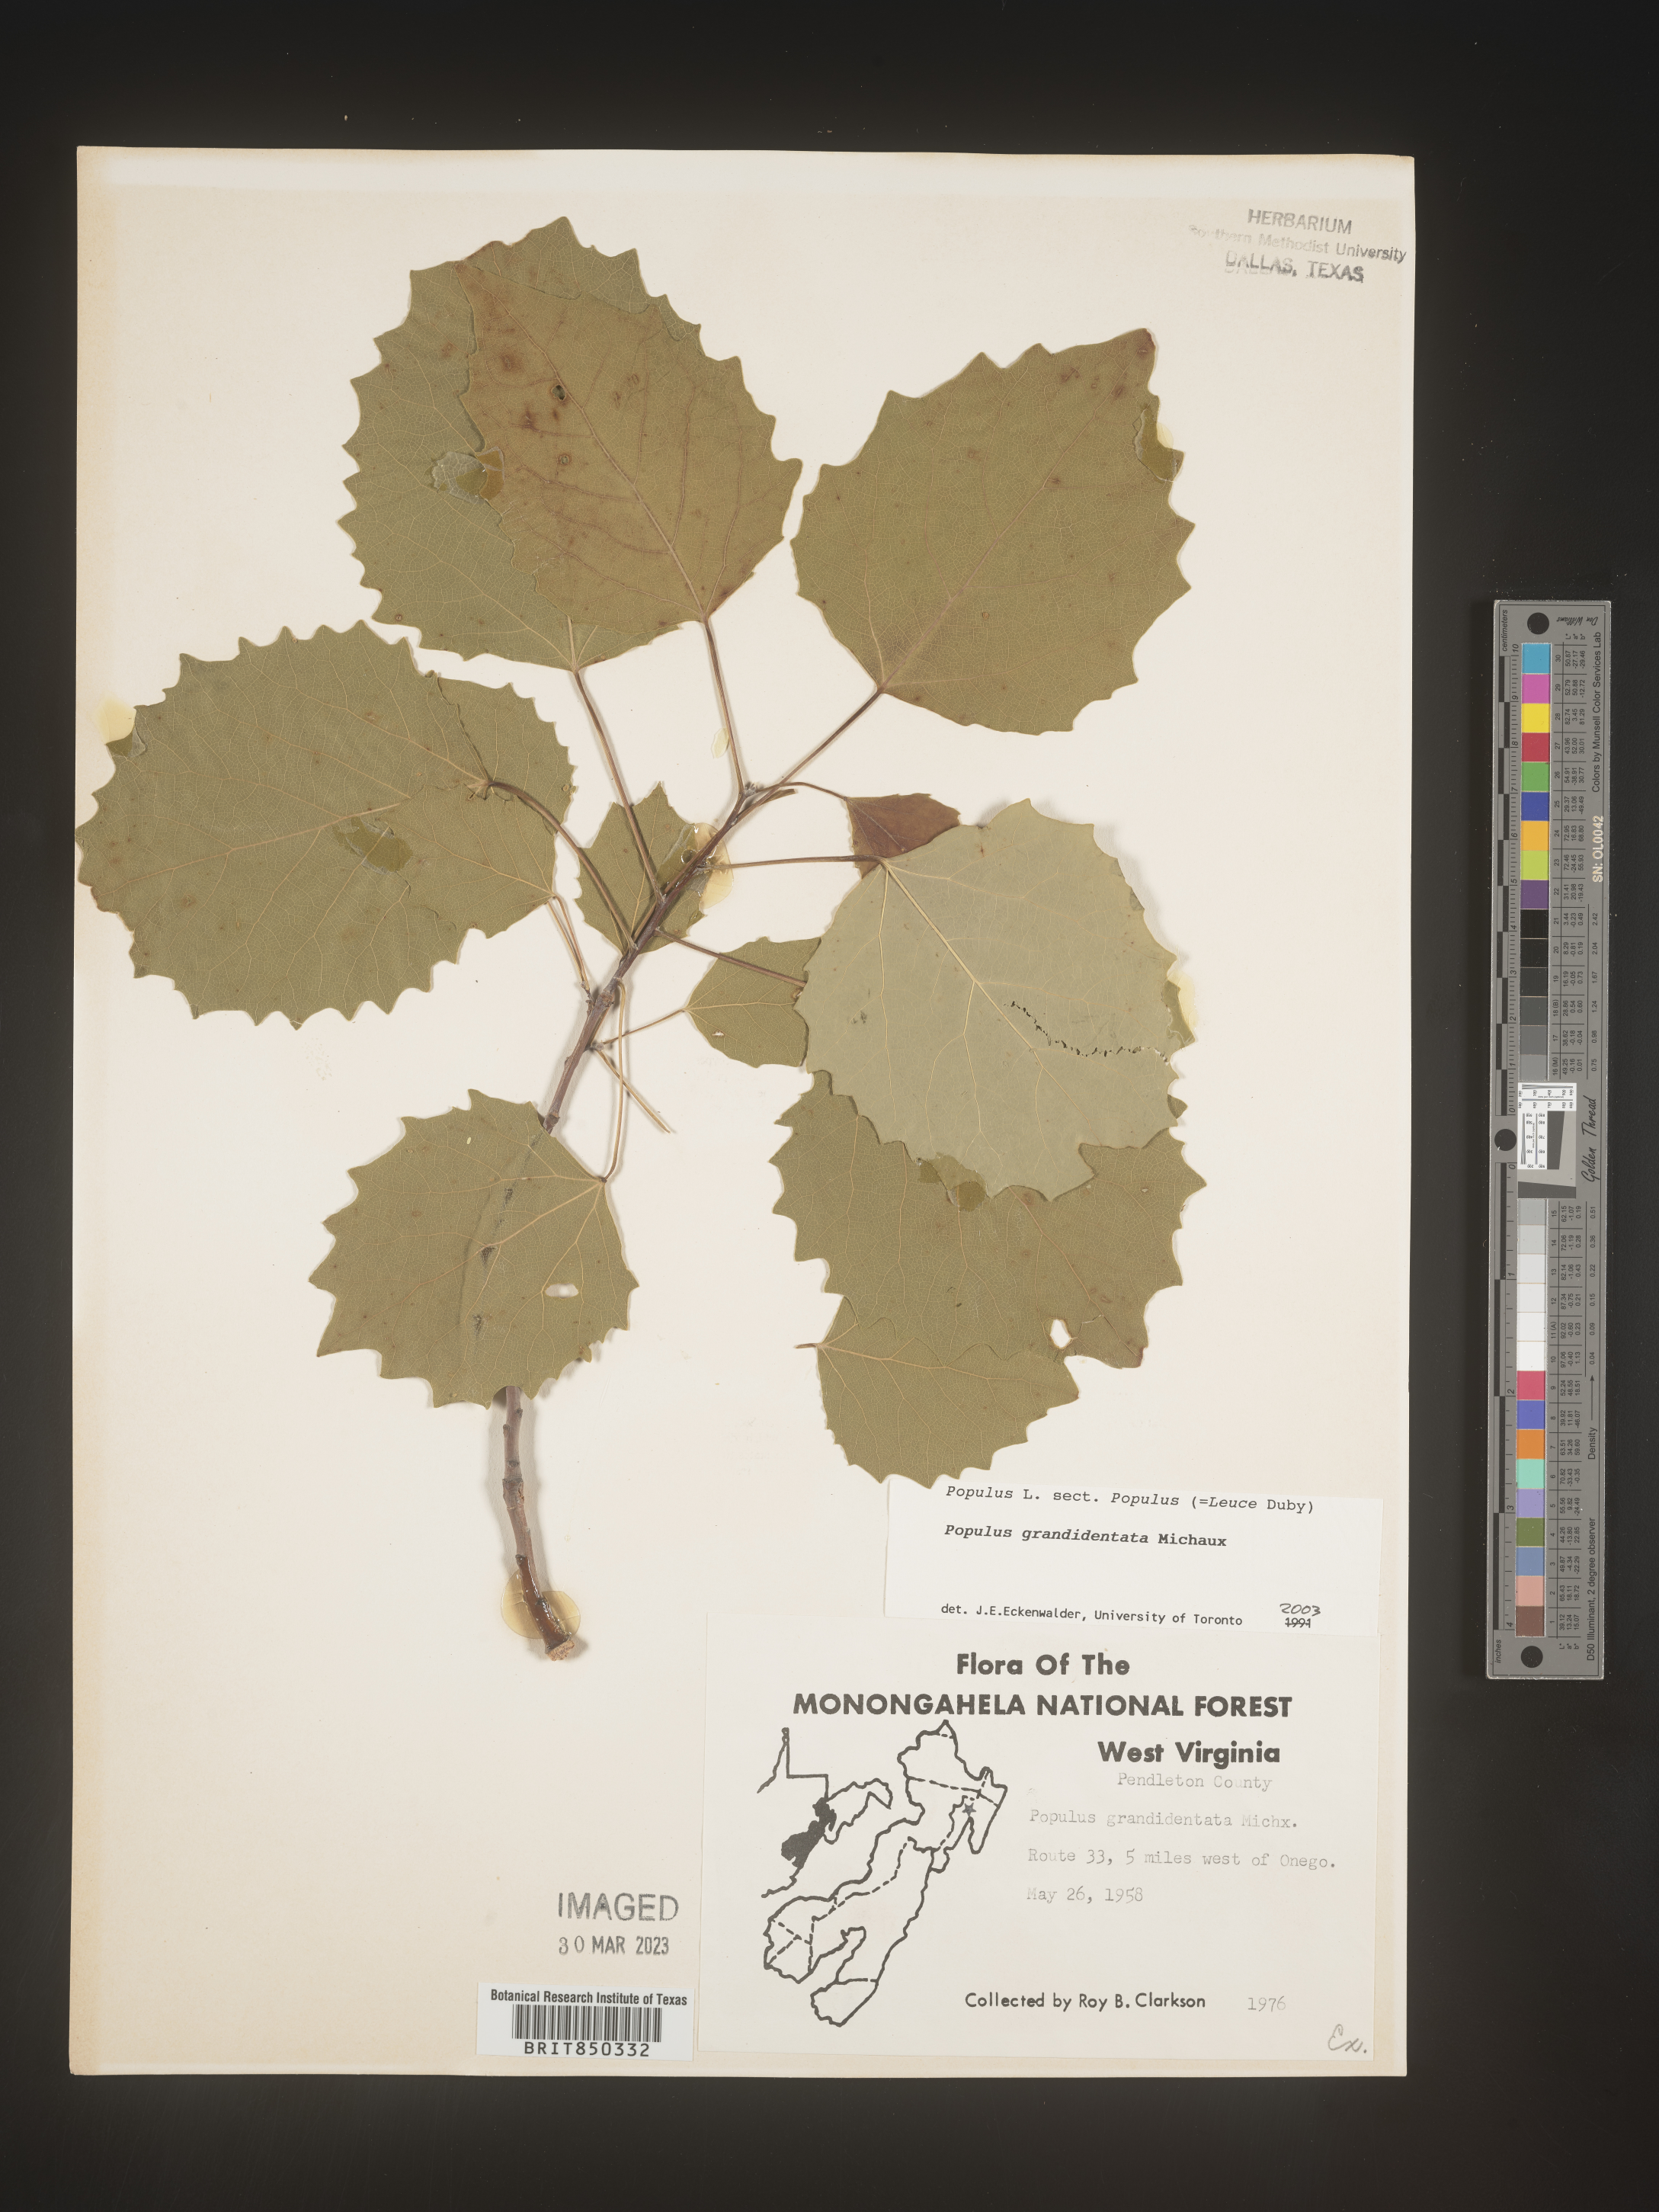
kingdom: Plantae
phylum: Tracheophyta
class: Magnoliopsida
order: Malpighiales
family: Salicaceae
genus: Populus
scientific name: Populus grandidentata
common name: Bigtooth aspen
